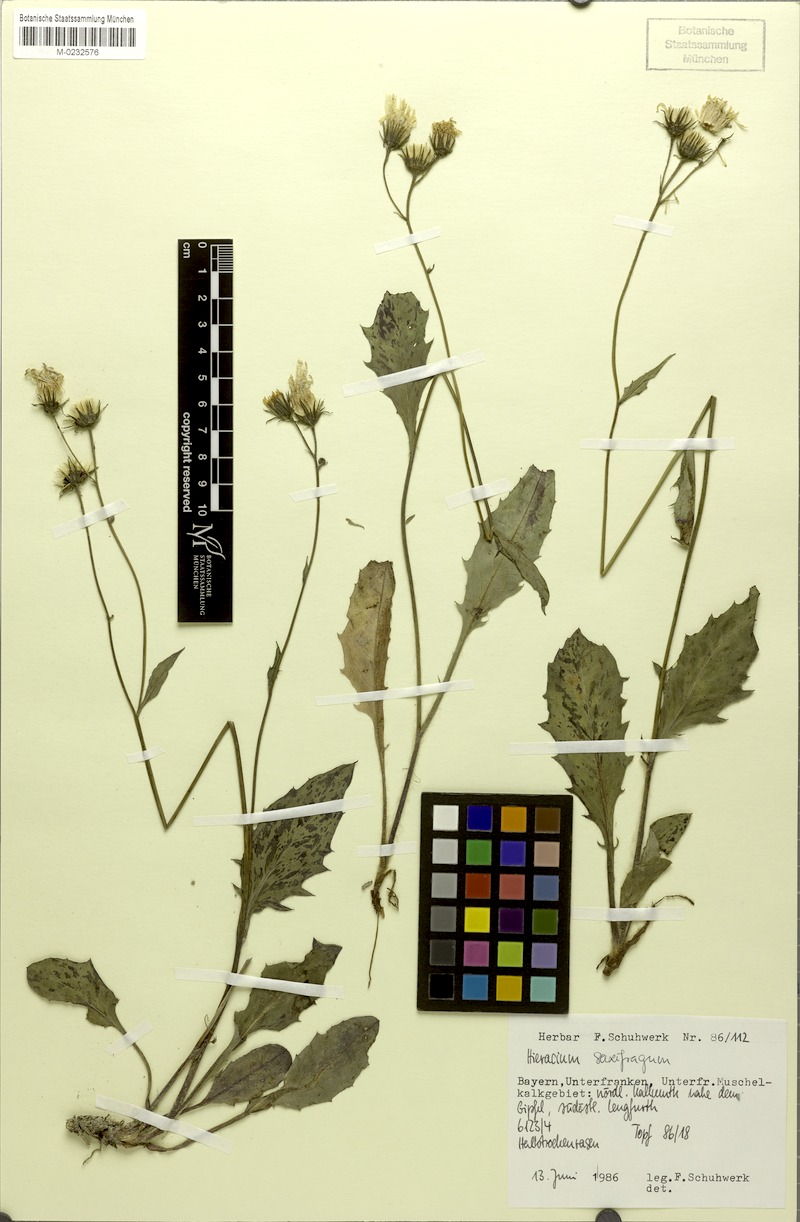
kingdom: Plantae
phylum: Tracheophyta
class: Magnoliopsida
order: Asterales
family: Asteraceae
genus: Hieracium
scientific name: Hieracium saxifragum
